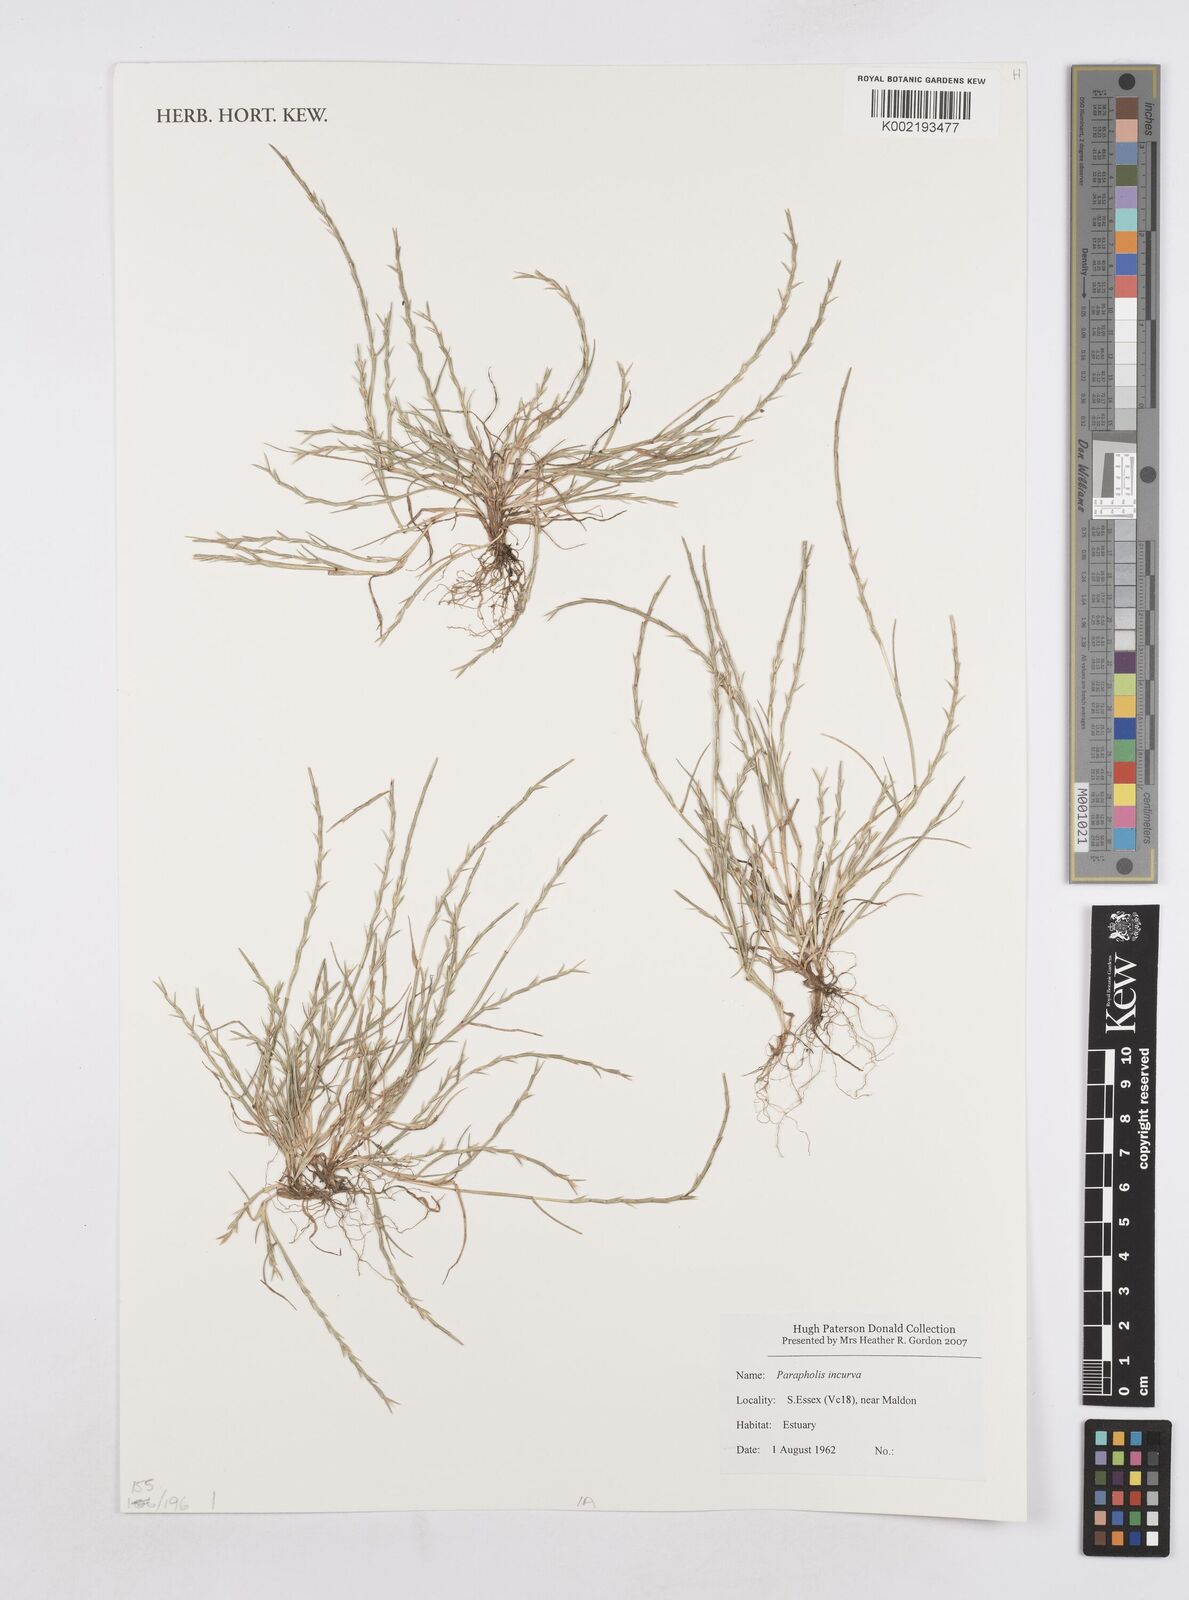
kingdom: Plantae
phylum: Tracheophyta
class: Liliopsida
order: Poales
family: Poaceae
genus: Parapholis
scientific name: Parapholis incurva
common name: Curved sicklegrass
